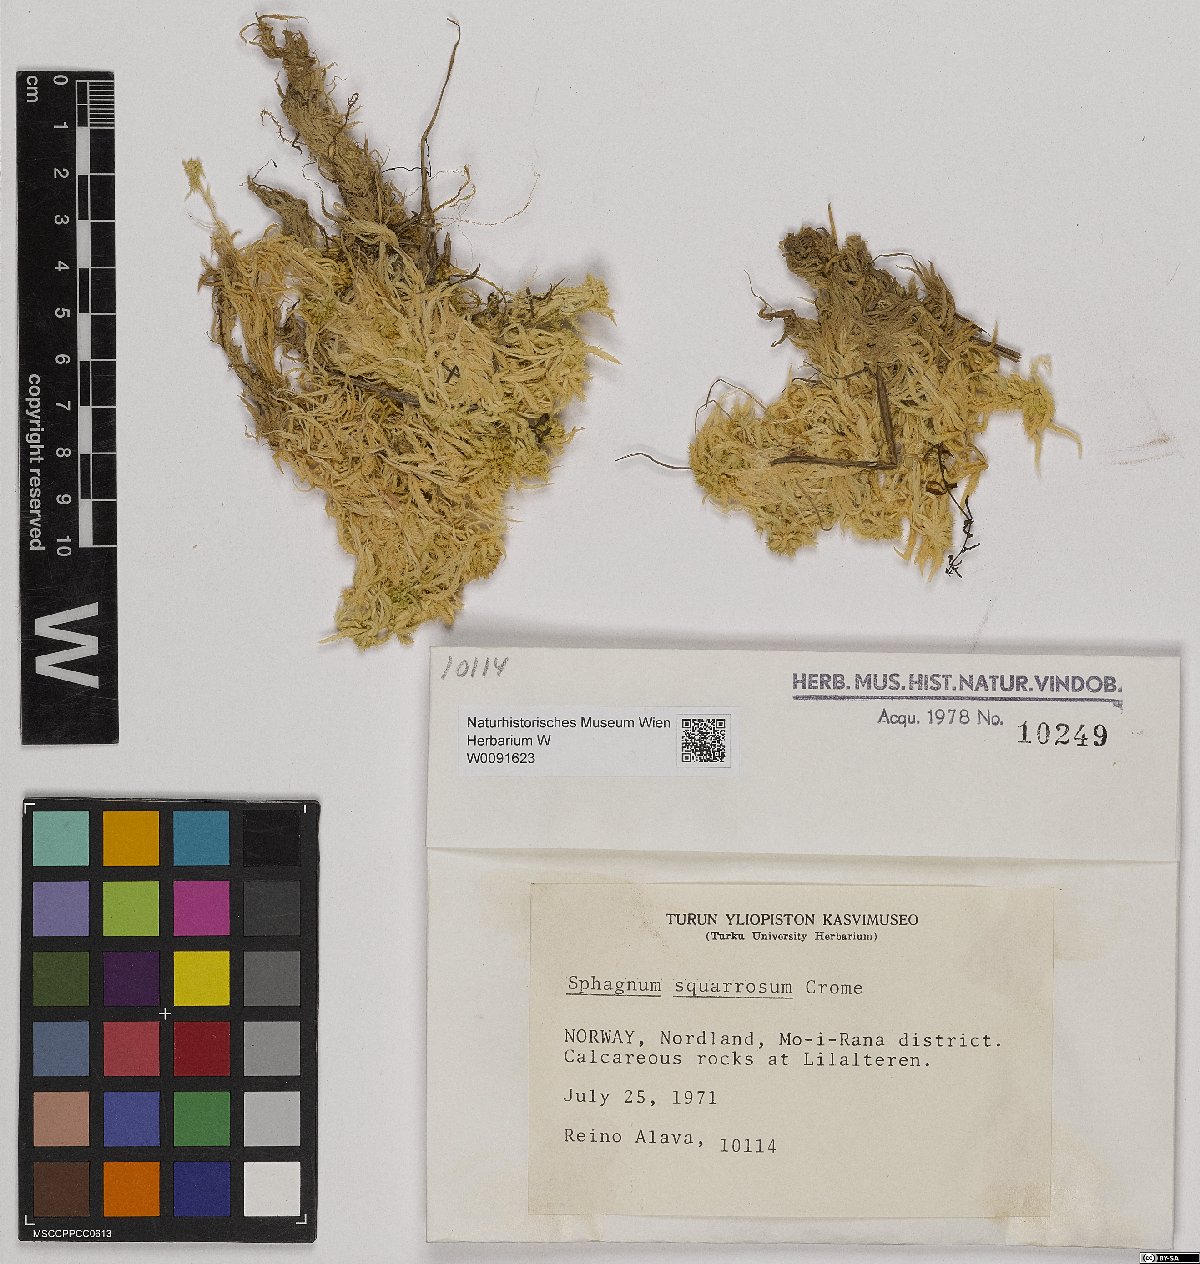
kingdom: Plantae
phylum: Bryophyta
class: Sphagnopsida
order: Sphagnales
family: Sphagnaceae
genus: Sphagnum
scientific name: Sphagnum squarrosum
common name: Shaggy peat moss
